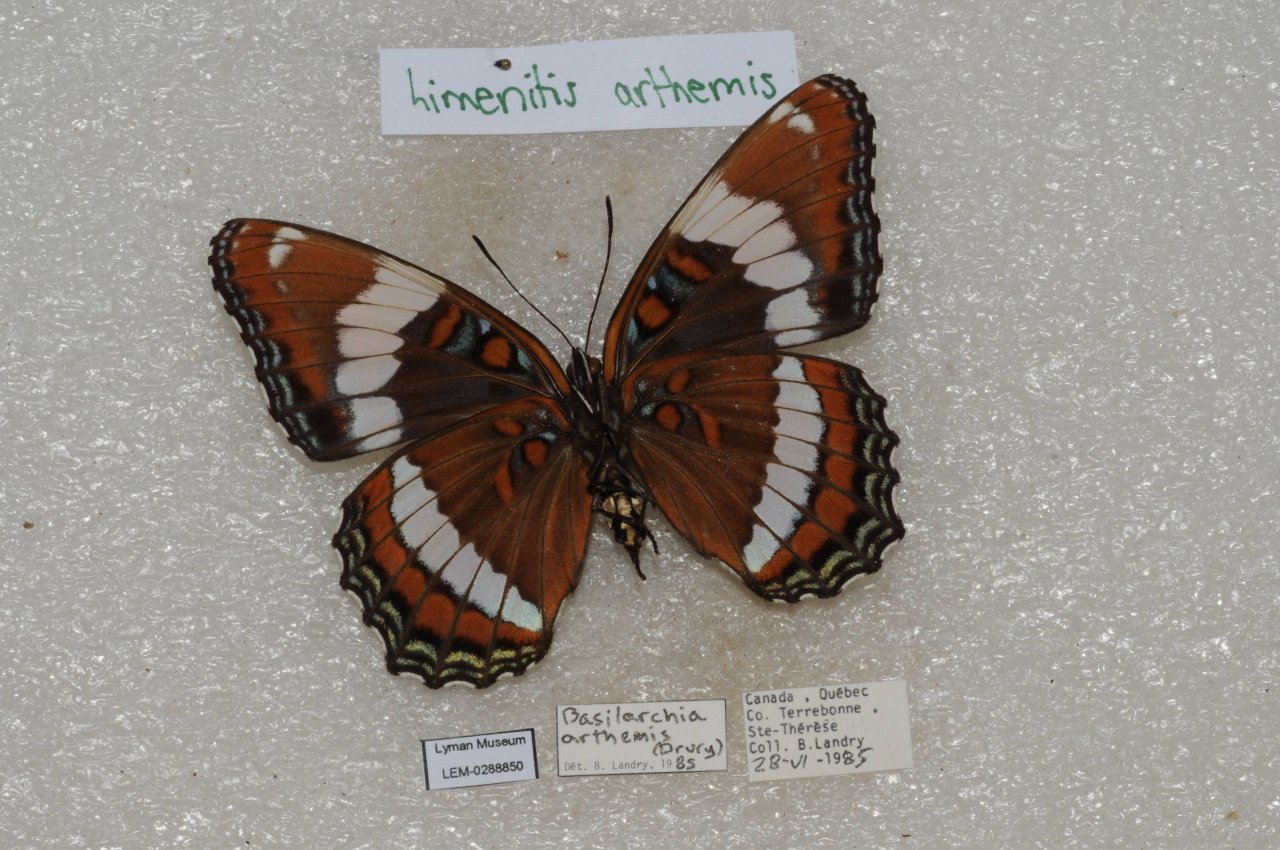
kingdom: Animalia
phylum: Arthropoda
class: Insecta
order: Lepidoptera
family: Nymphalidae
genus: Limenitis
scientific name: Limenitis arthemis
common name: Red-spotted Admiral
